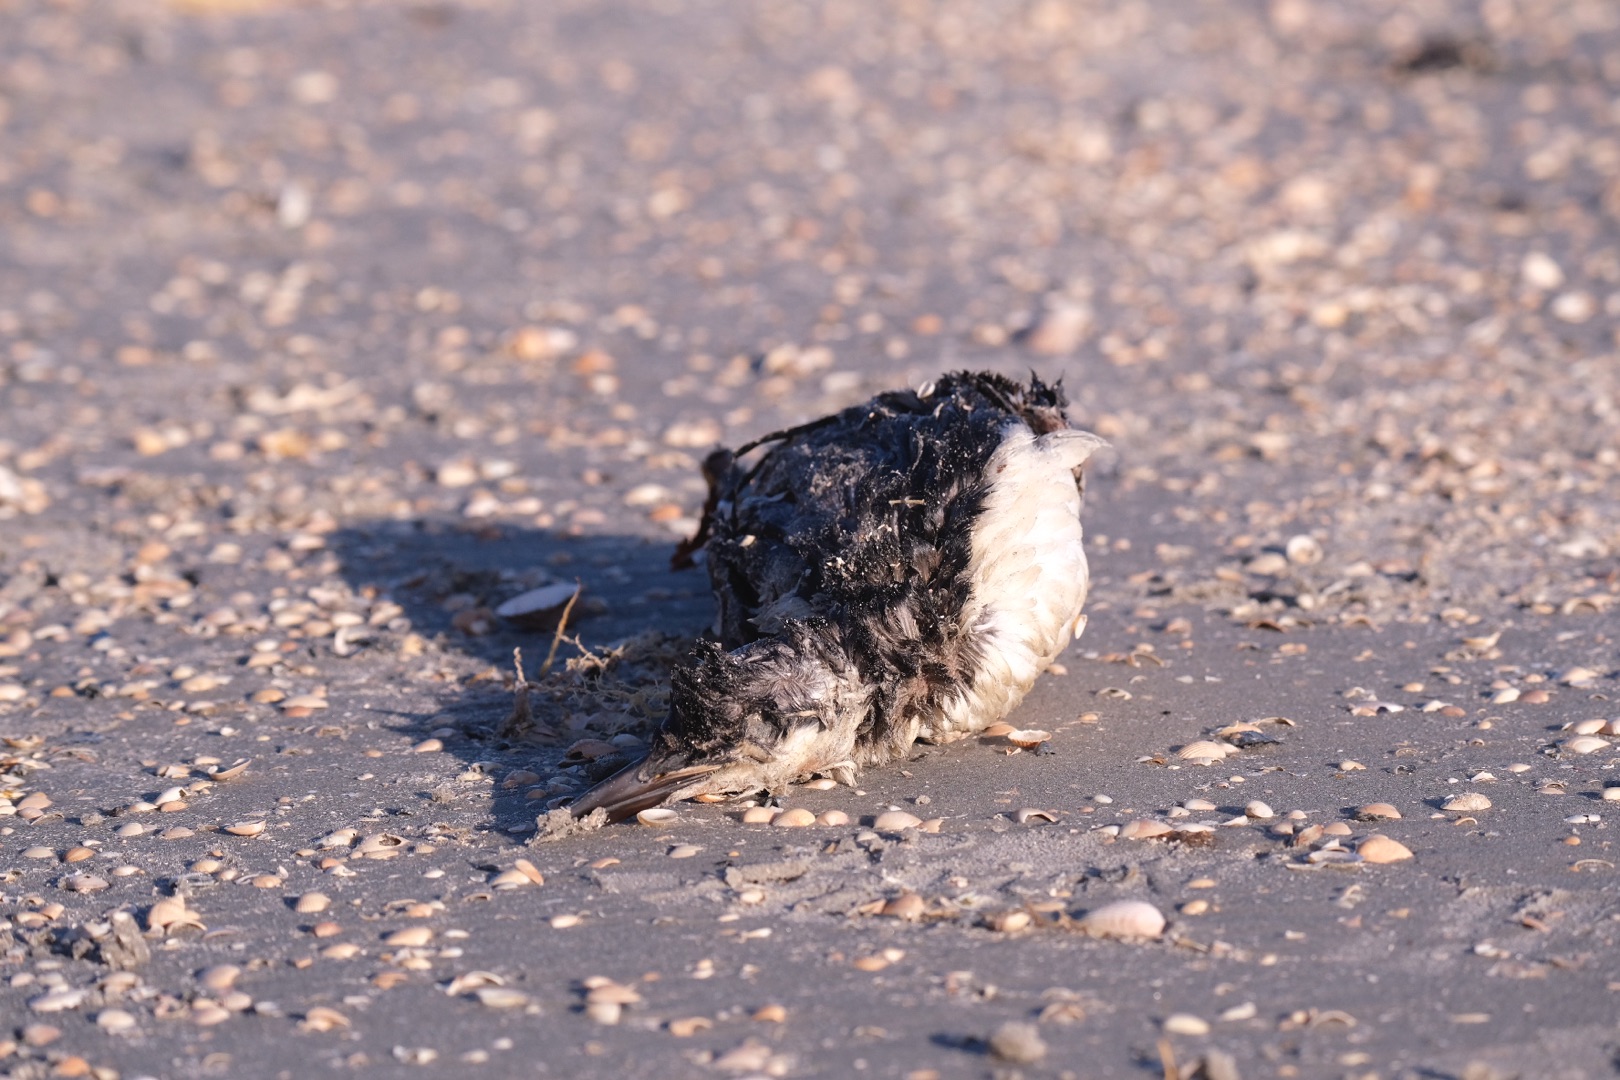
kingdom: Animalia
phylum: Chordata
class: Aves
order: Charadriiformes
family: Alcidae
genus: Uria
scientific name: Uria aalge
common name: Lomvie
